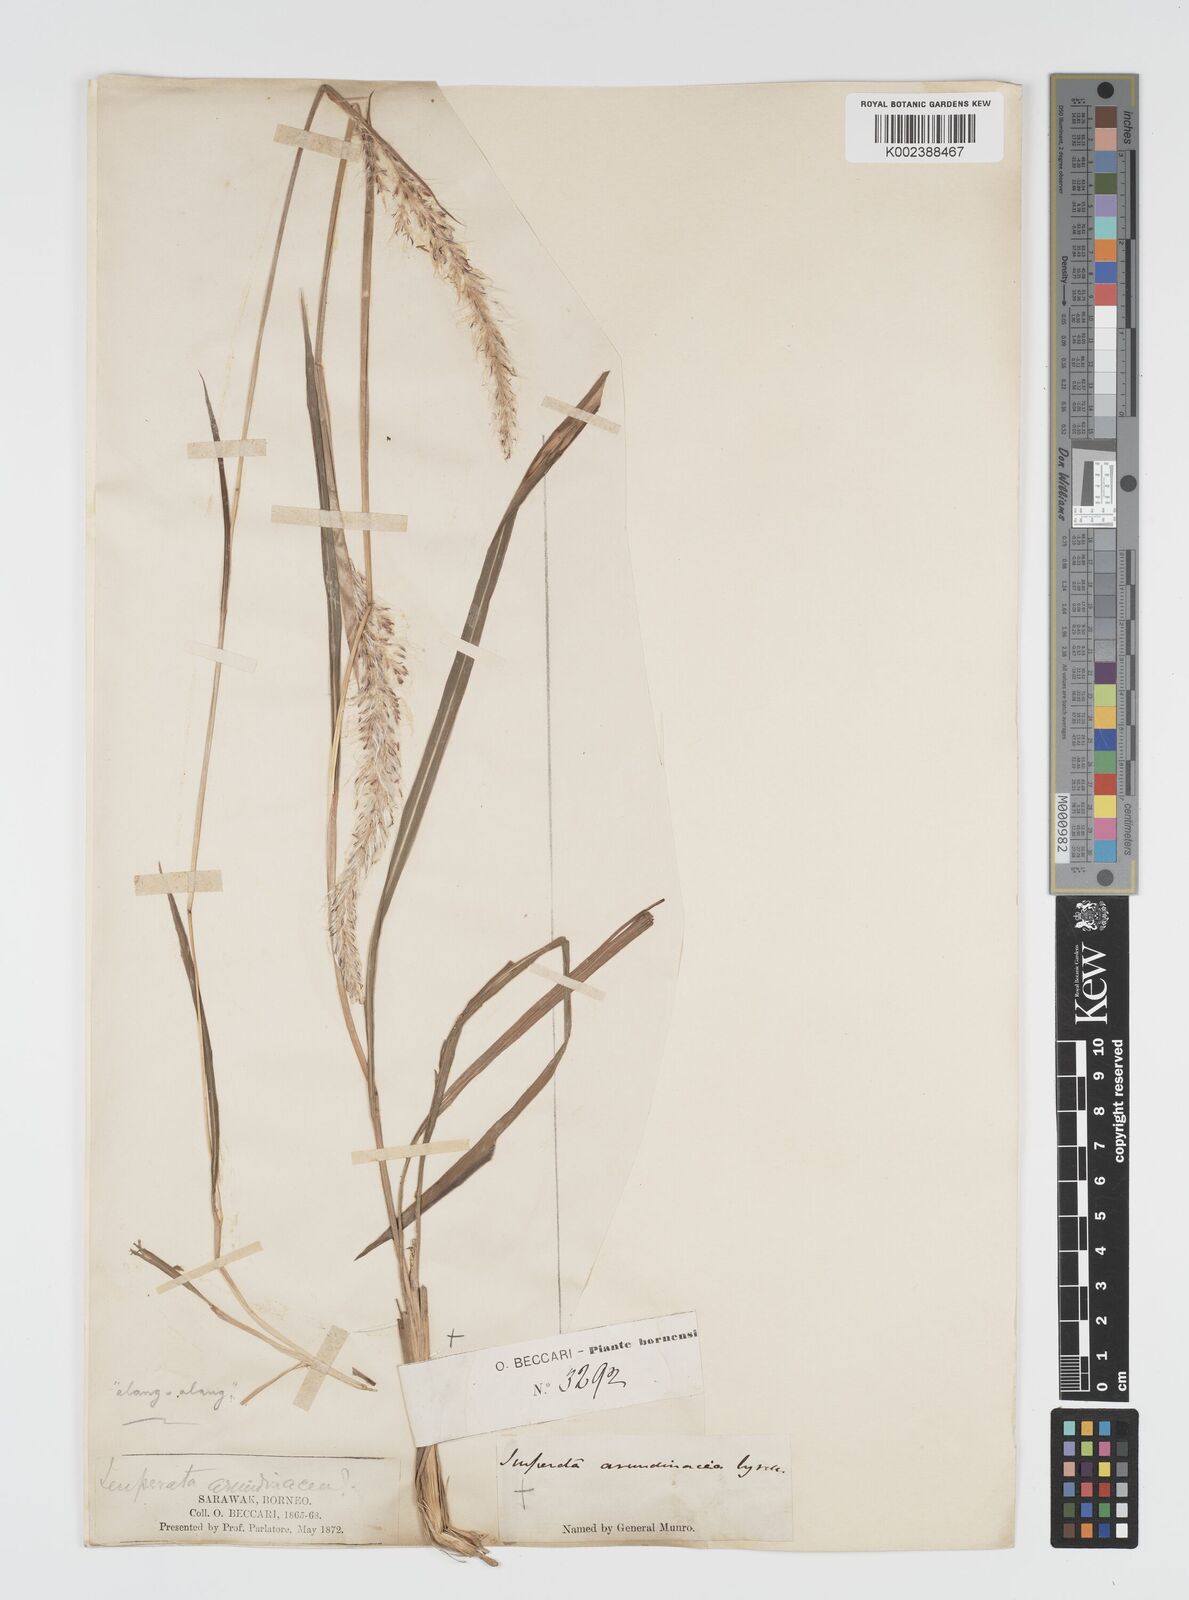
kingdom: Plantae
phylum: Tracheophyta
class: Liliopsida
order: Poales
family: Poaceae
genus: Imperata
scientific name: Imperata cylindrica
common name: Cogongrass
